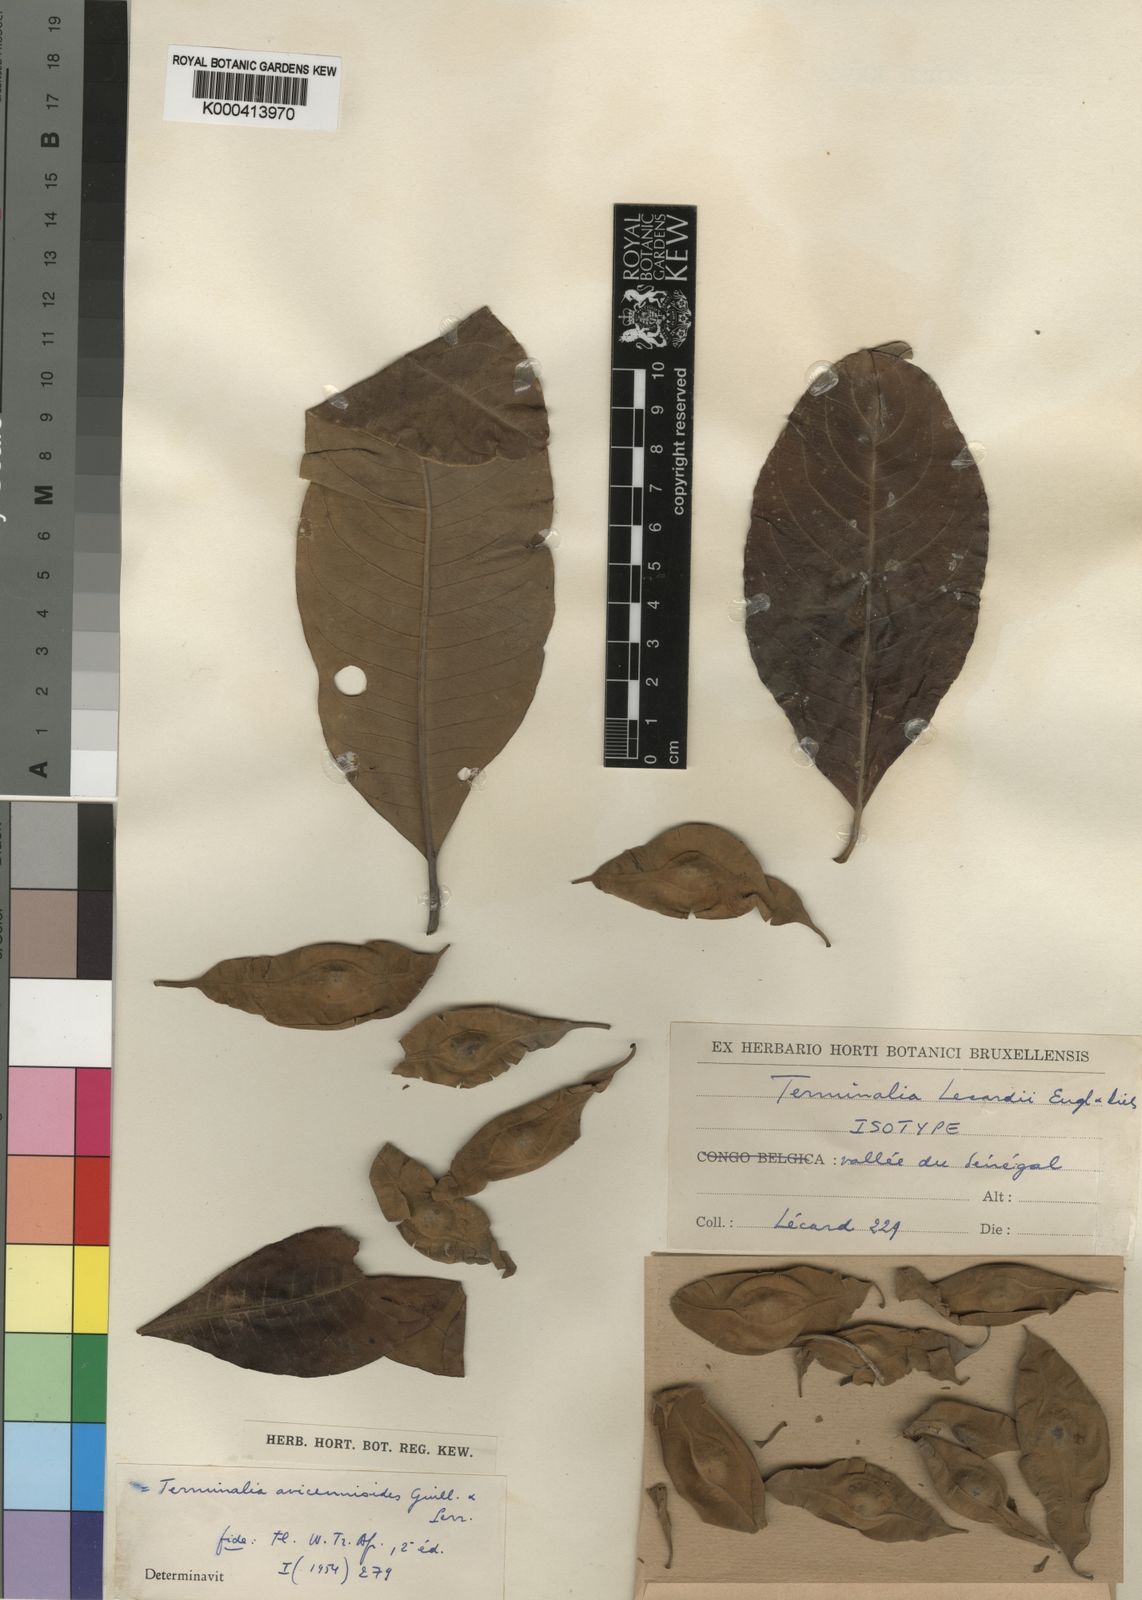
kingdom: Plantae
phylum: Tracheophyta
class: Magnoliopsida
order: Myrtales
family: Combretaceae
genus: Terminalia
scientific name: Terminalia avicennioides
